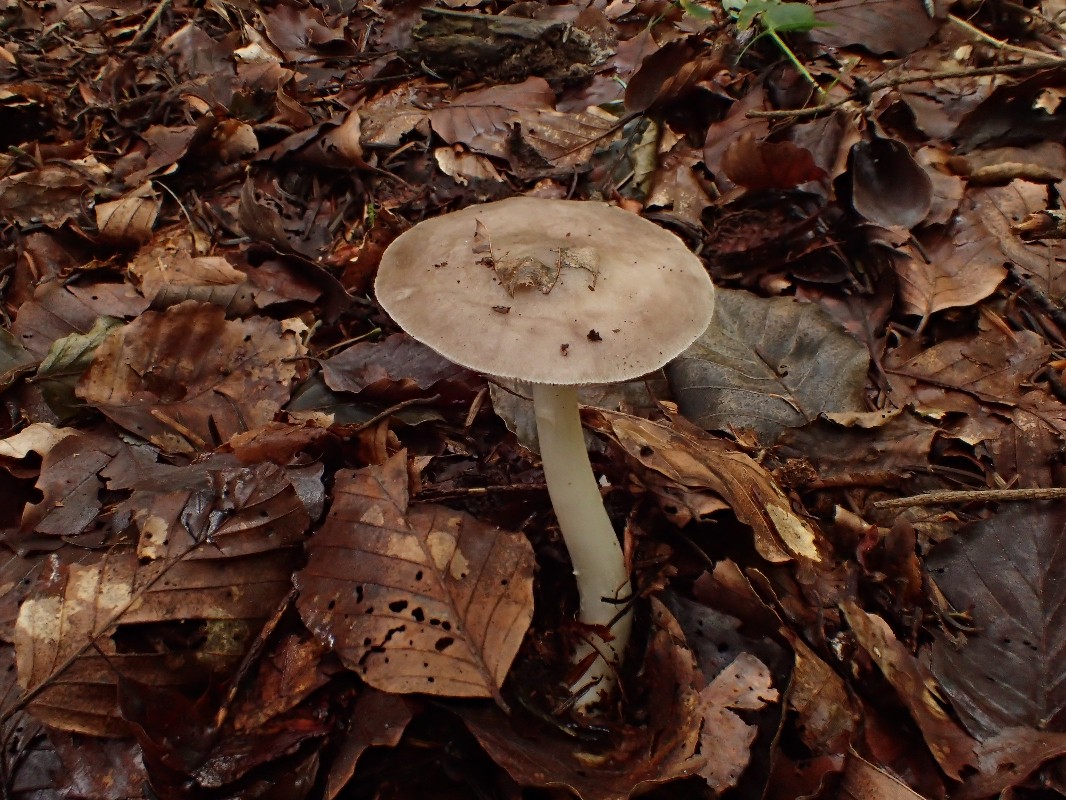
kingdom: Fungi
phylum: Basidiomycota
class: Agaricomycetes
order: Agaricales
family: Pluteaceae
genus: Pluteus
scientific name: Pluteus cervinus
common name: sodfarvet skærmhat
